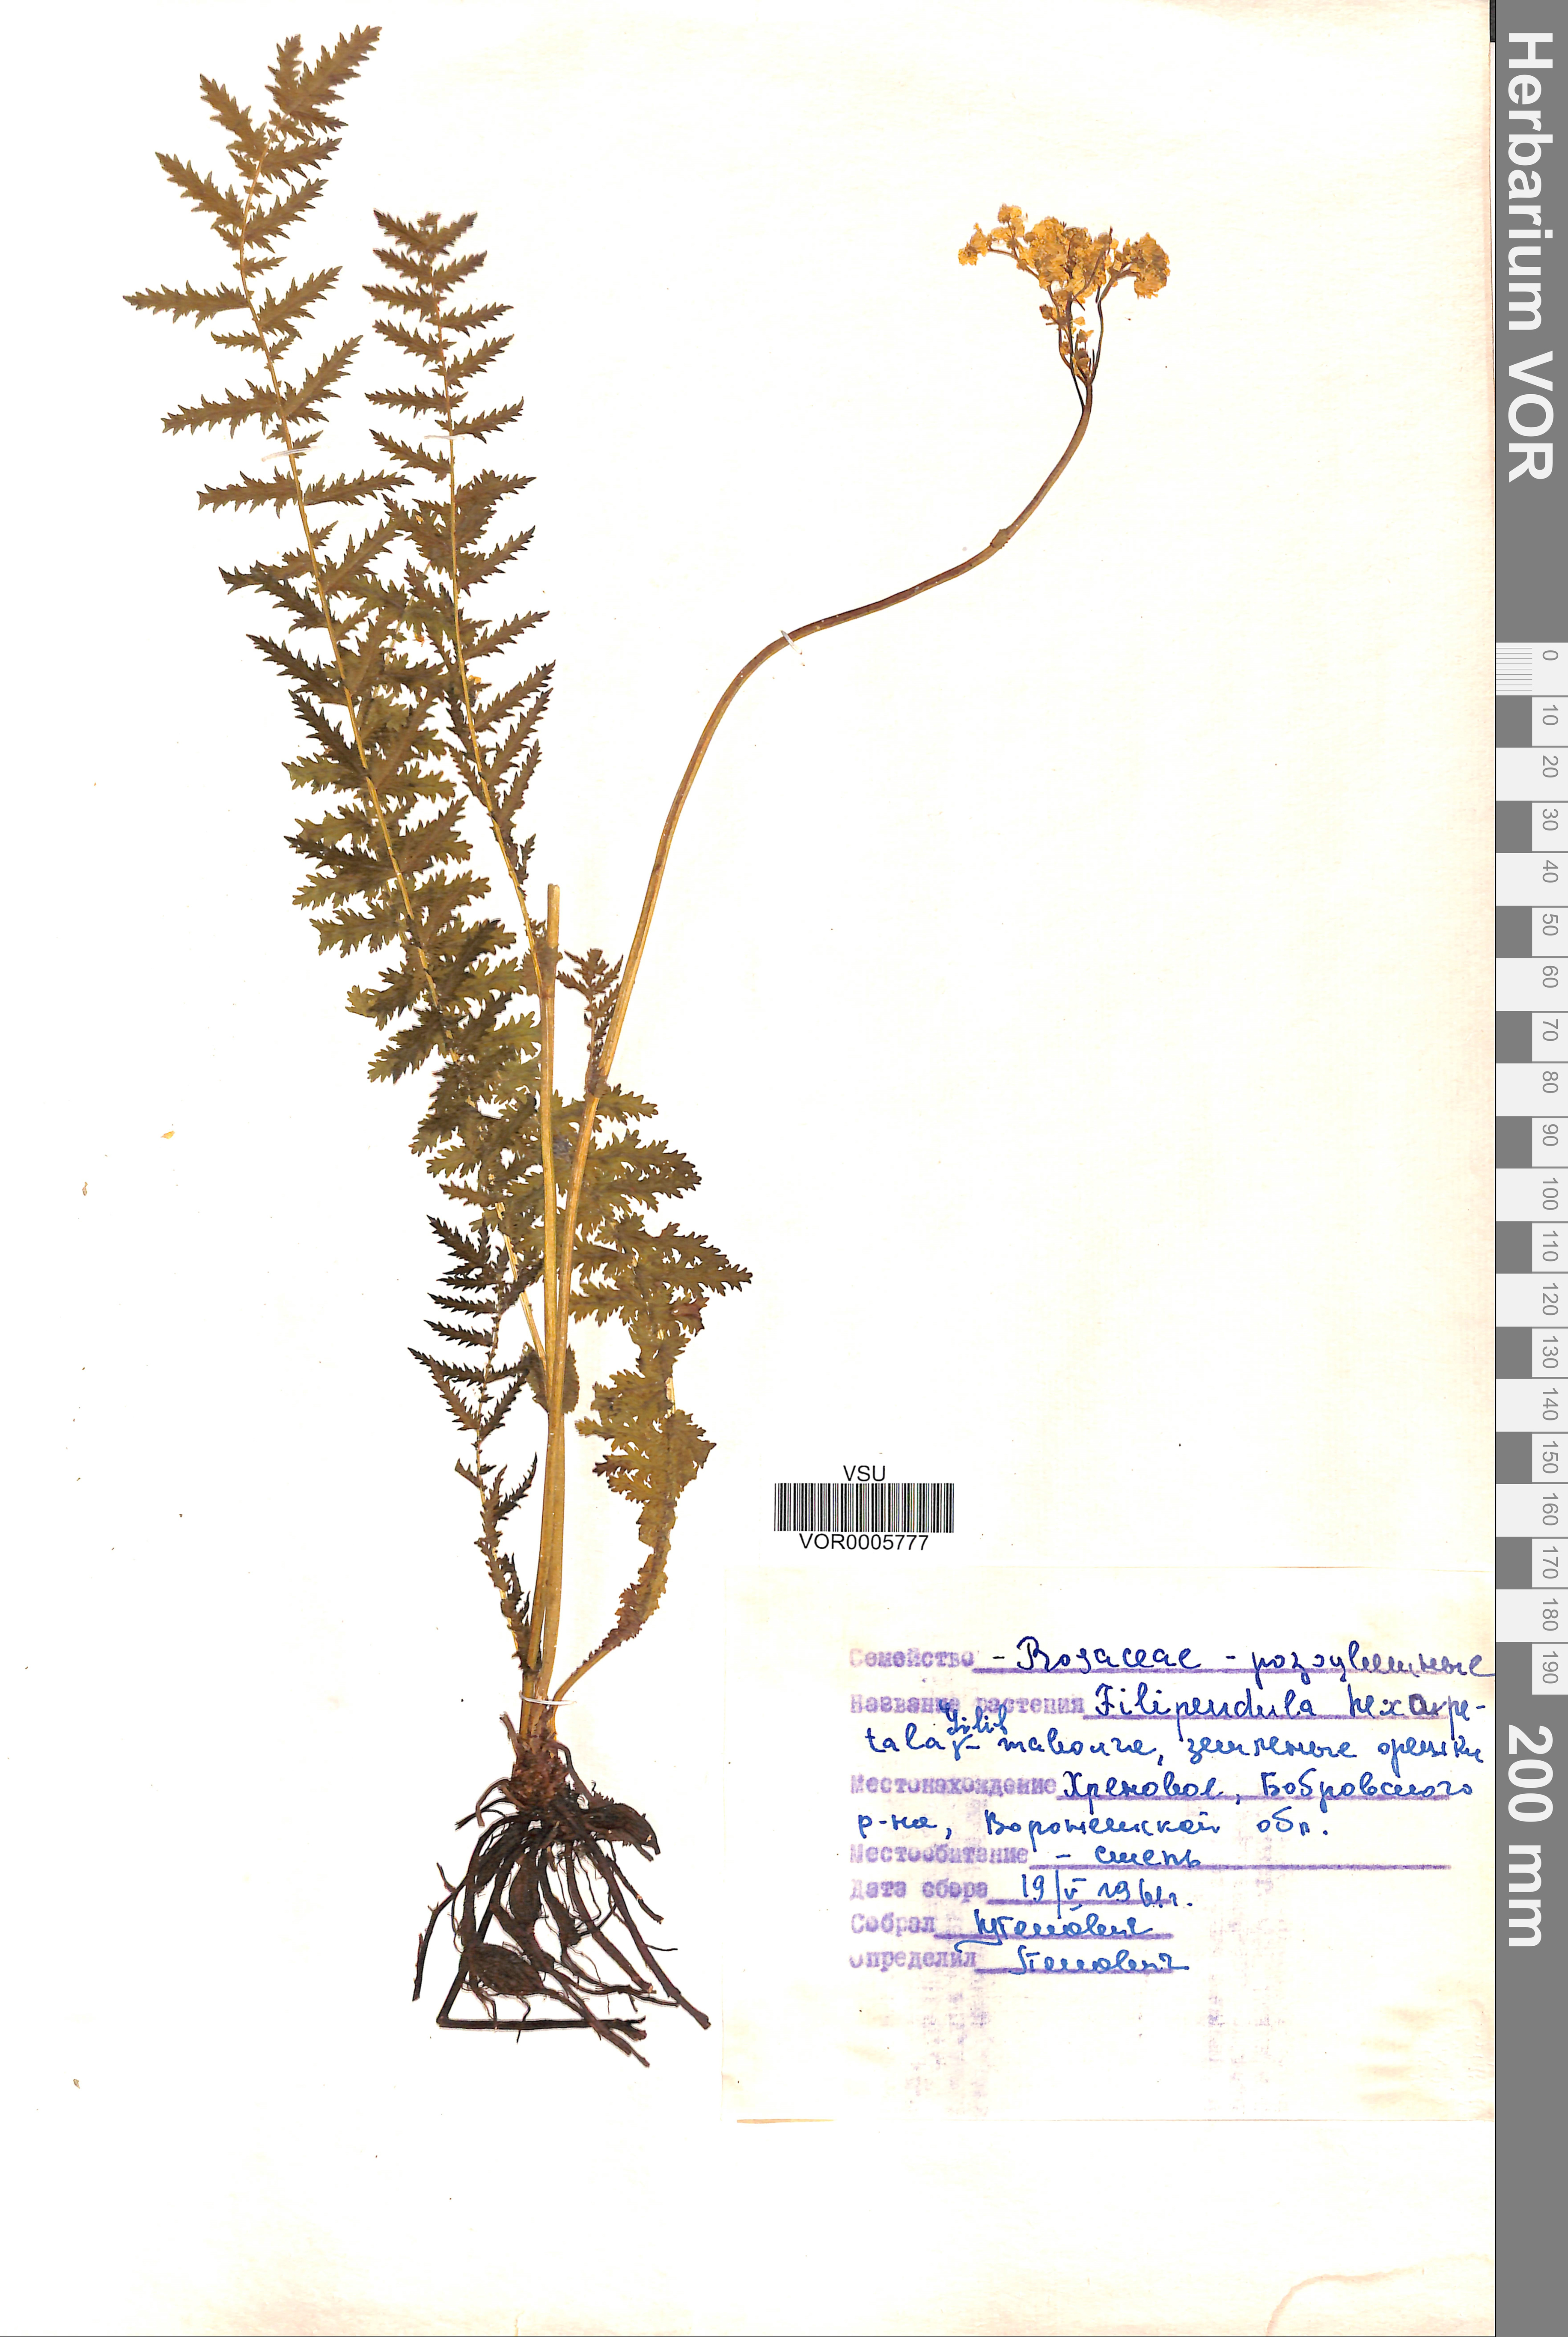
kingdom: Plantae
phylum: Tracheophyta
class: Magnoliopsida
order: Rosales
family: Rosaceae
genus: Filipendula
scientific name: Filipendula vulgaris
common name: Dropwort
